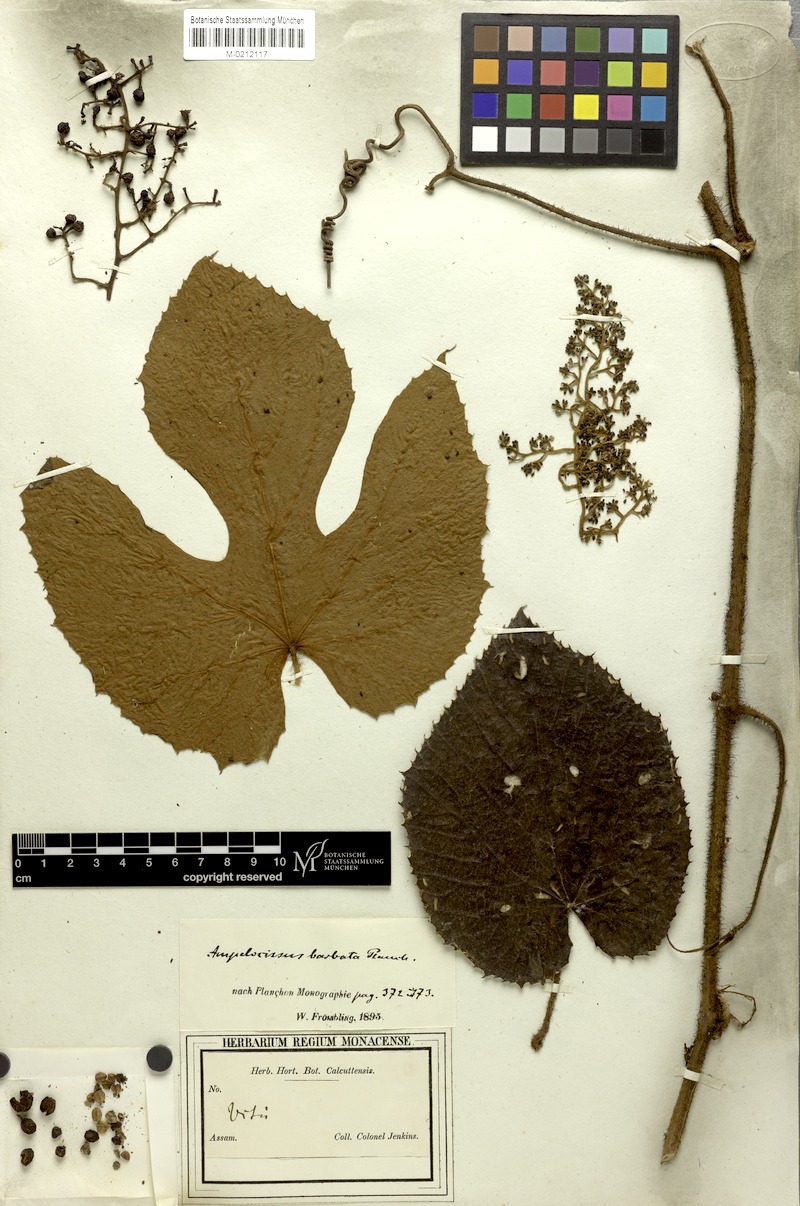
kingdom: Plantae
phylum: Tracheophyta
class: Magnoliopsida
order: Vitales
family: Vitaceae
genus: Ampelocissus
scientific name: Ampelocissus barbata
